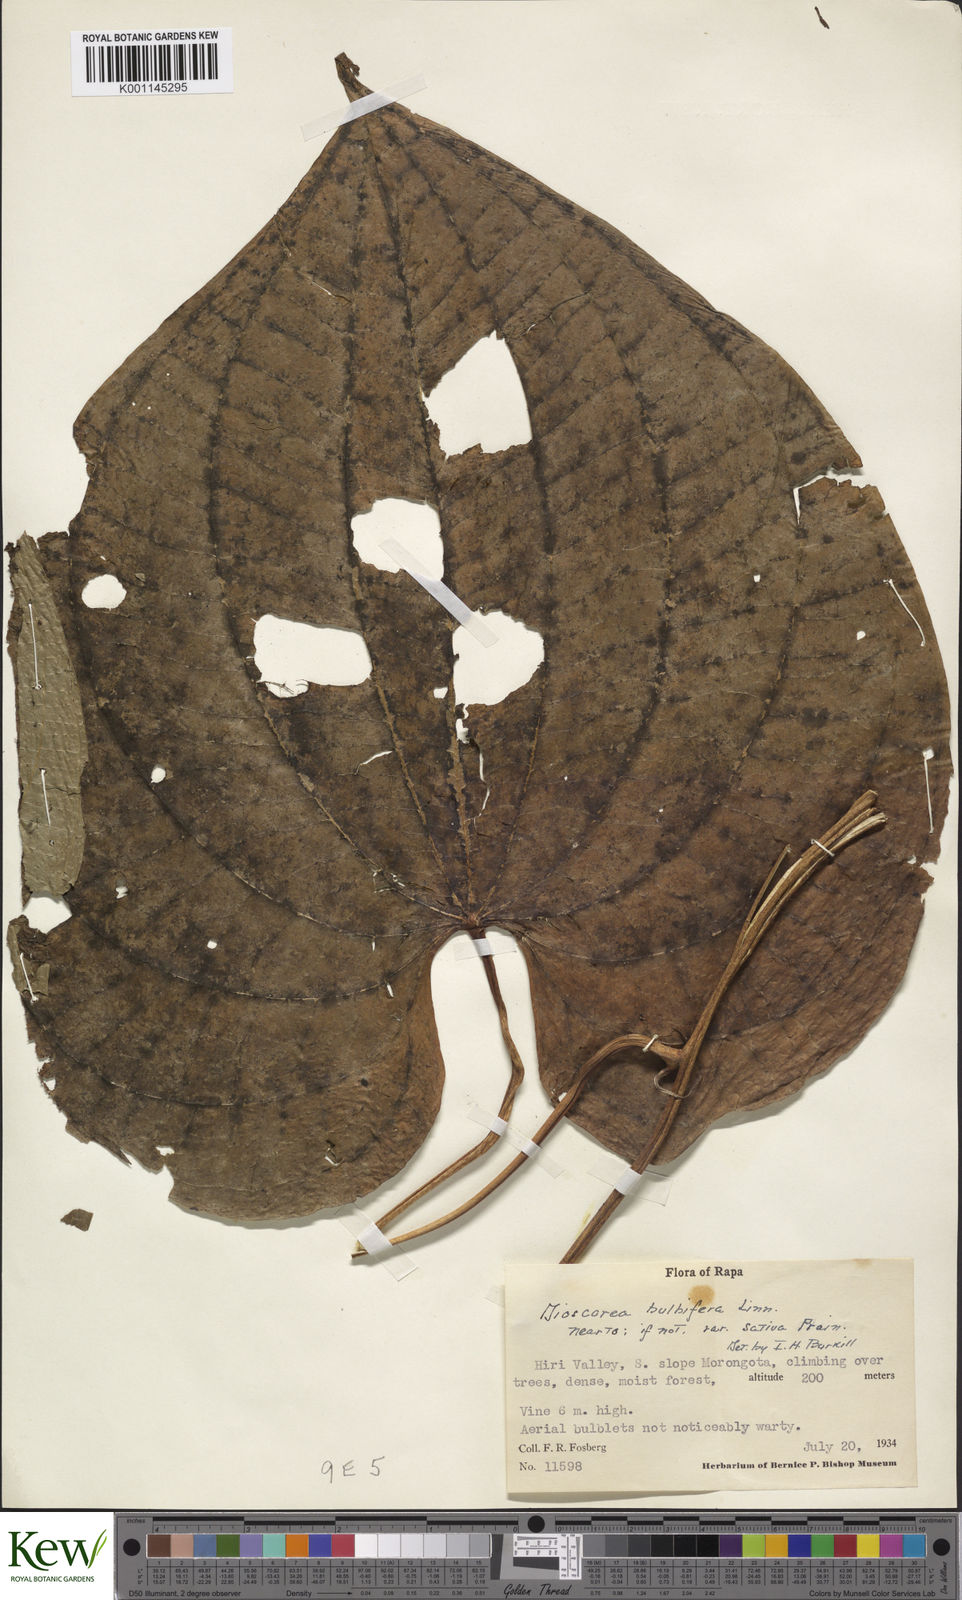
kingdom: Plantae
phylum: Tracheophyta
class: Liliopsida
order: Dioscoreales
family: Dioscoreaceae
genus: Dioscorea
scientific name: Dioscorea bulbifera
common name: Air yam
